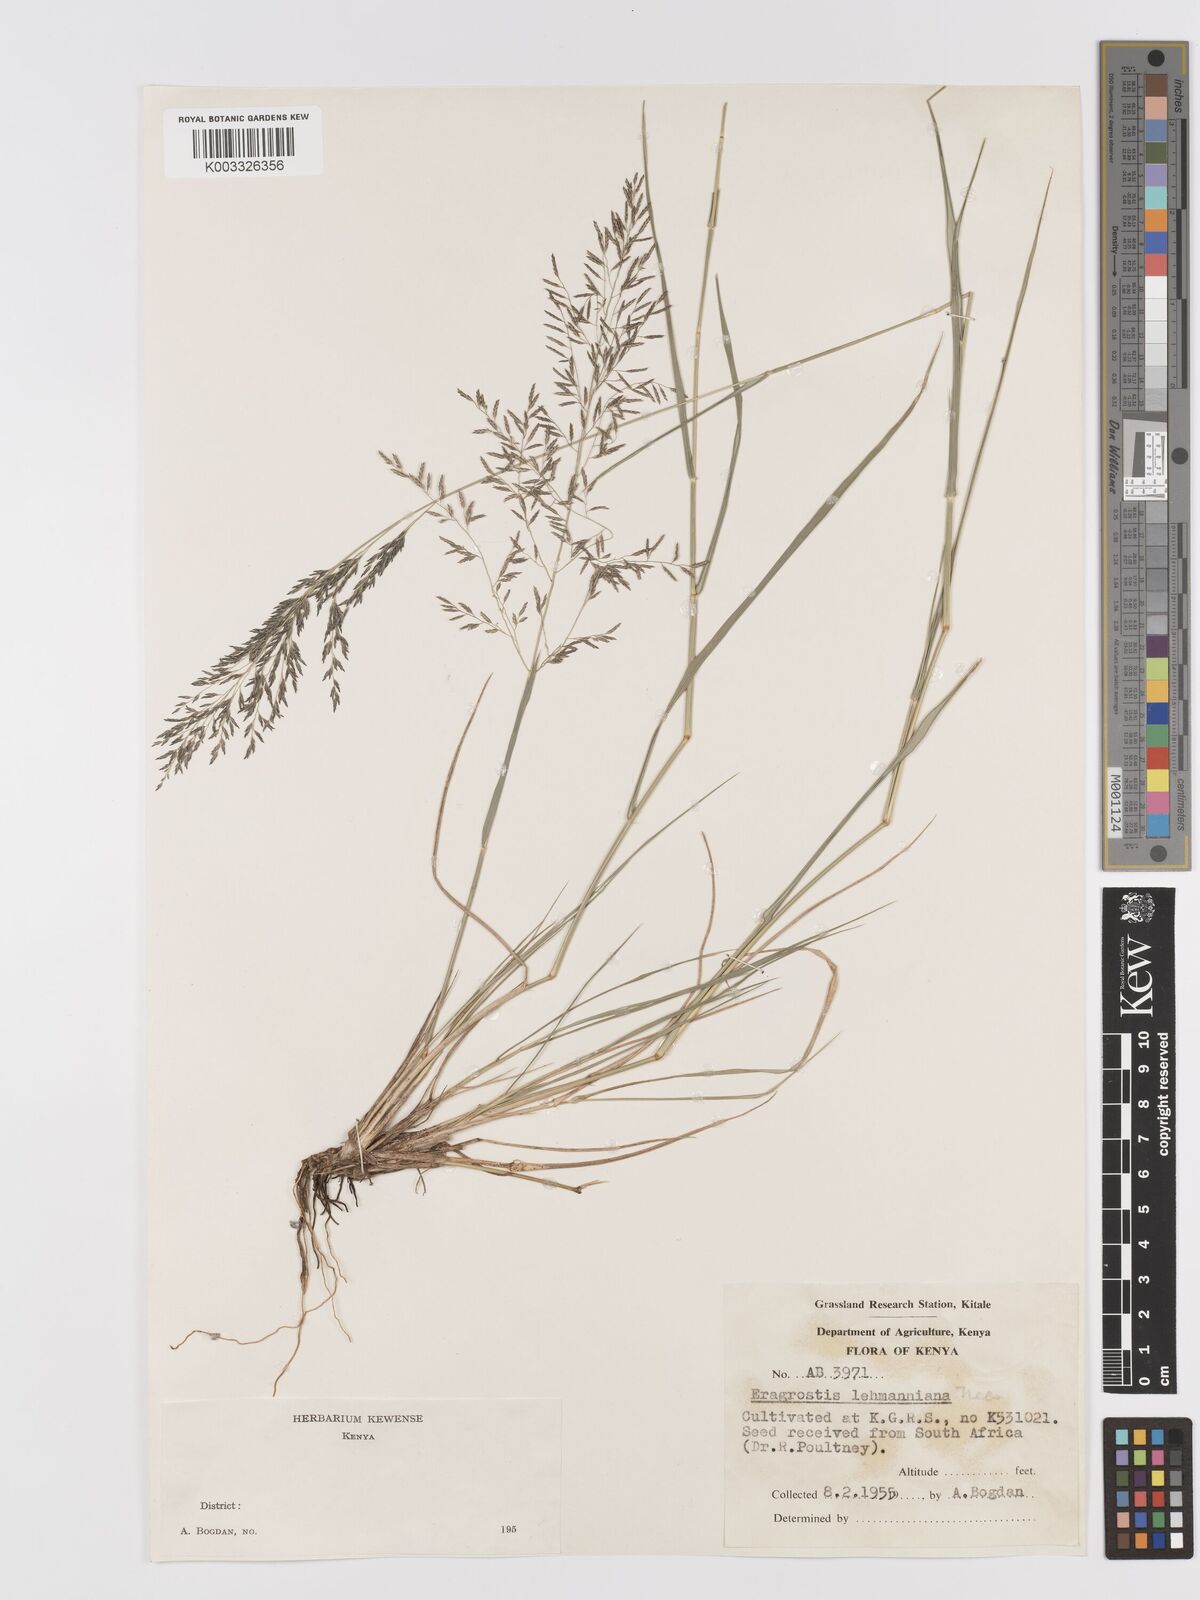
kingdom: Plantae
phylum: Tracheophyta
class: Liliopsida
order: Poales
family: Poaceae
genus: Eragrostis
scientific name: Eragrostis lehmanniana
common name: Lehmann lovegrass
